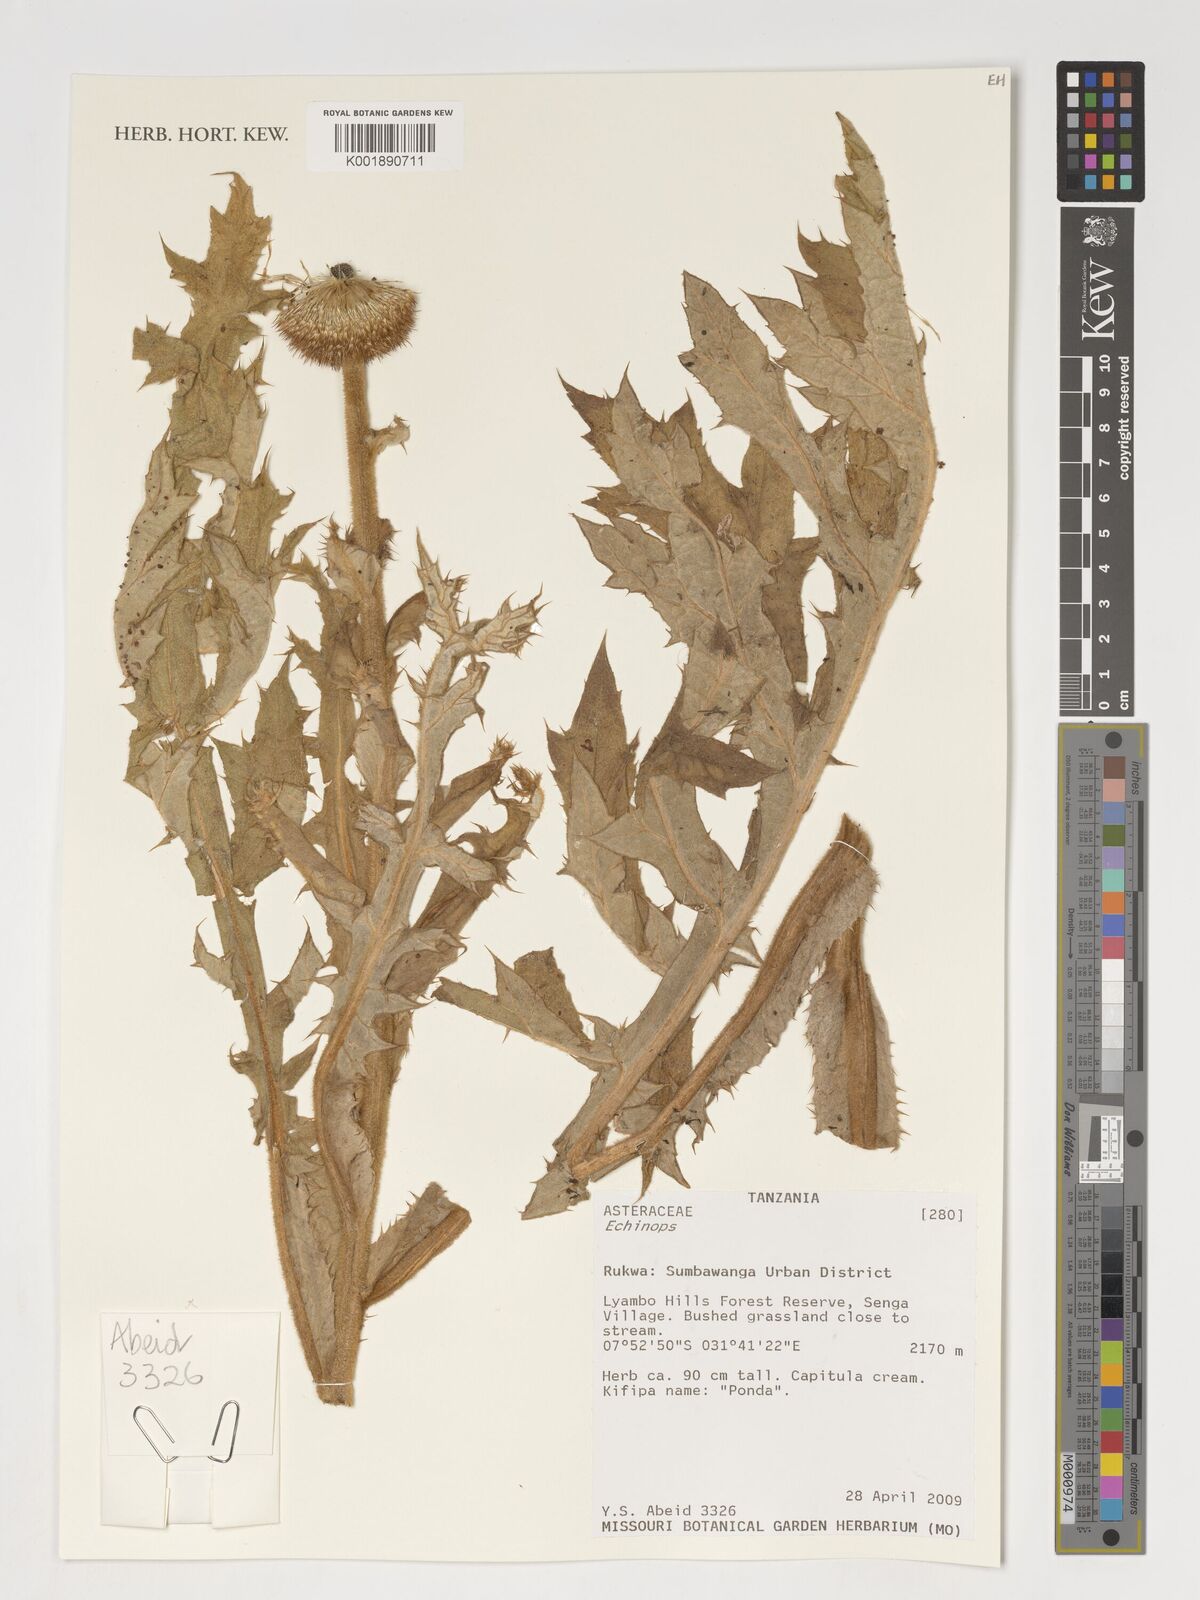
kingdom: Plantae
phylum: Tracheophyta
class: Magnoliopsida
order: Asterales
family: Asteraceae
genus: Echinops
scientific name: Echinops
